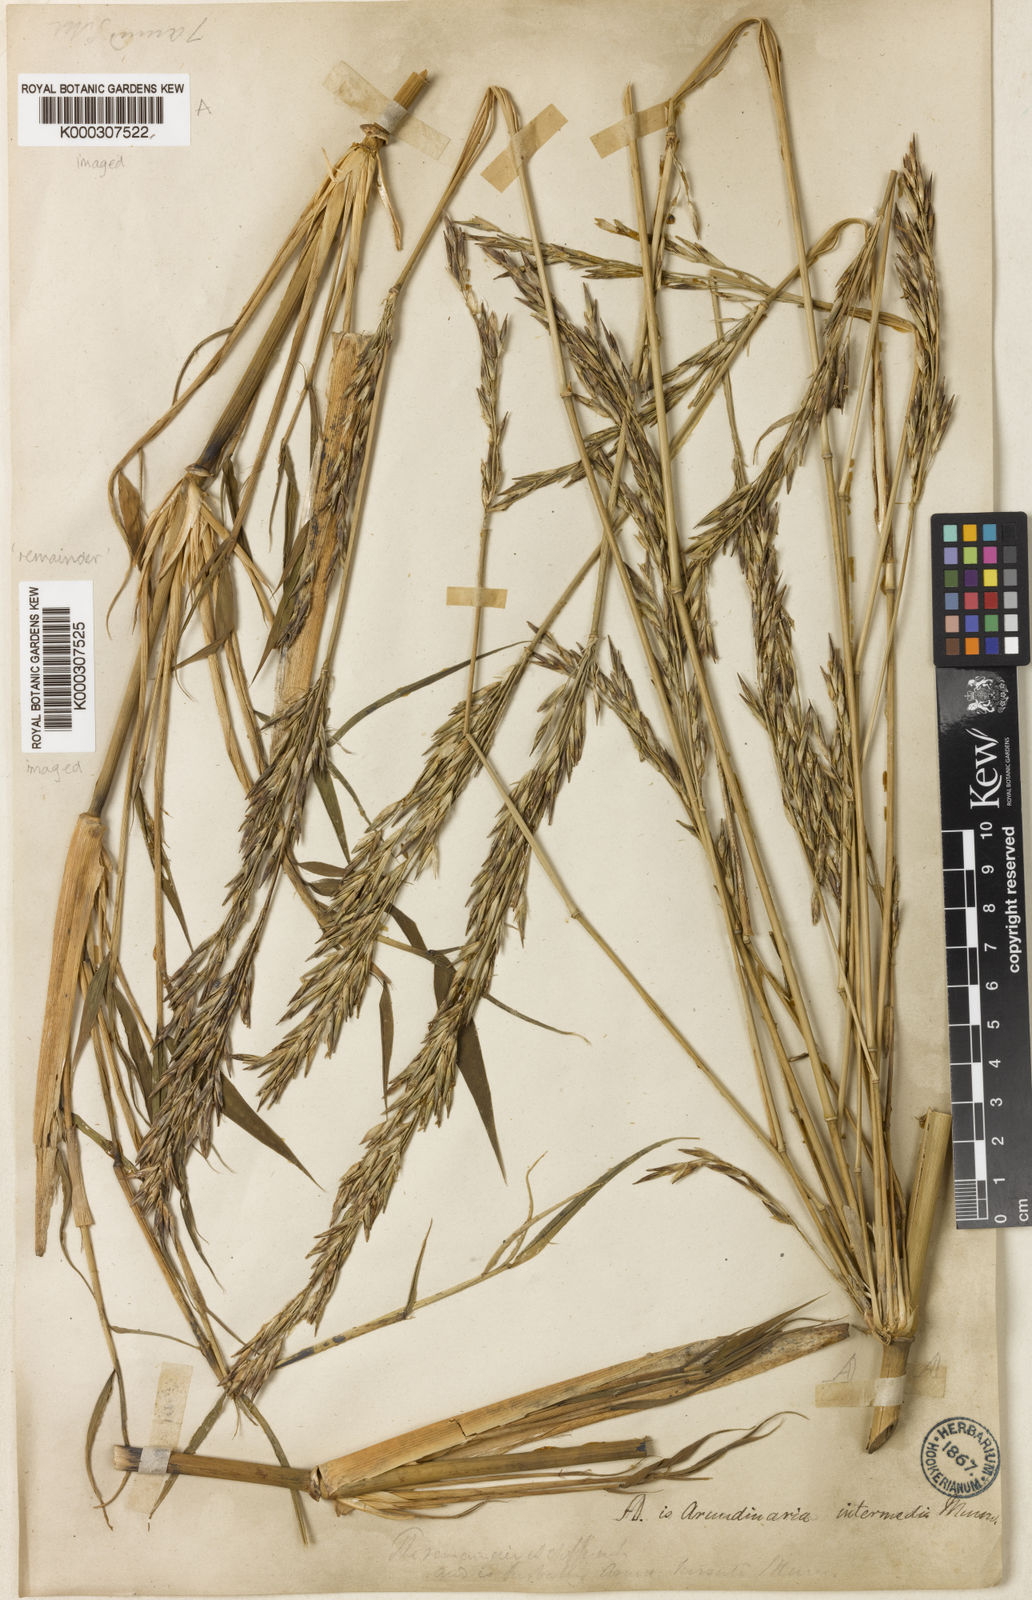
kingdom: Plantae
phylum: Tracheophyta
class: Liliopsida
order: Poales
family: Poaceae
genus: Drepanostachyum
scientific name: Drepanostachyum intermedium
